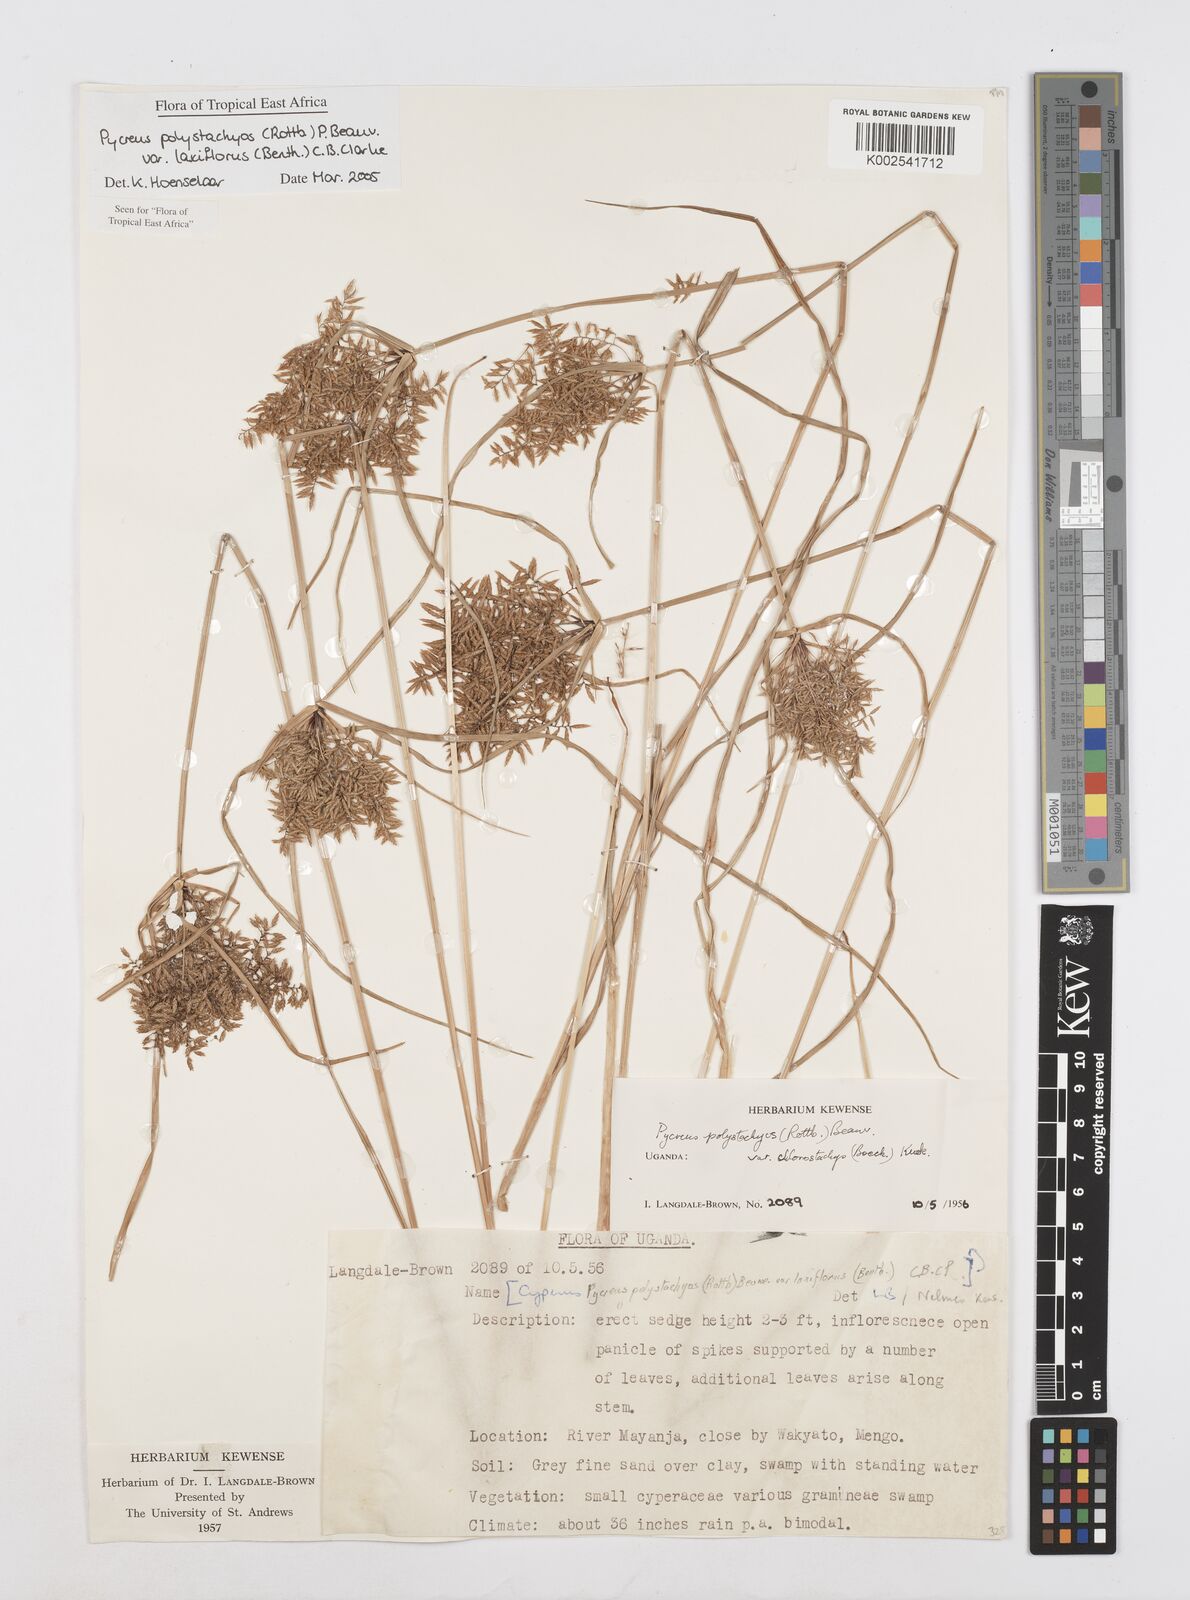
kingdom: Plantae
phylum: Tracheophyta
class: Liliopsida
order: Poales
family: Cyperaceae
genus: Cyperus
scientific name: Cyperus polystachyos
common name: Bunchy flat sedge
